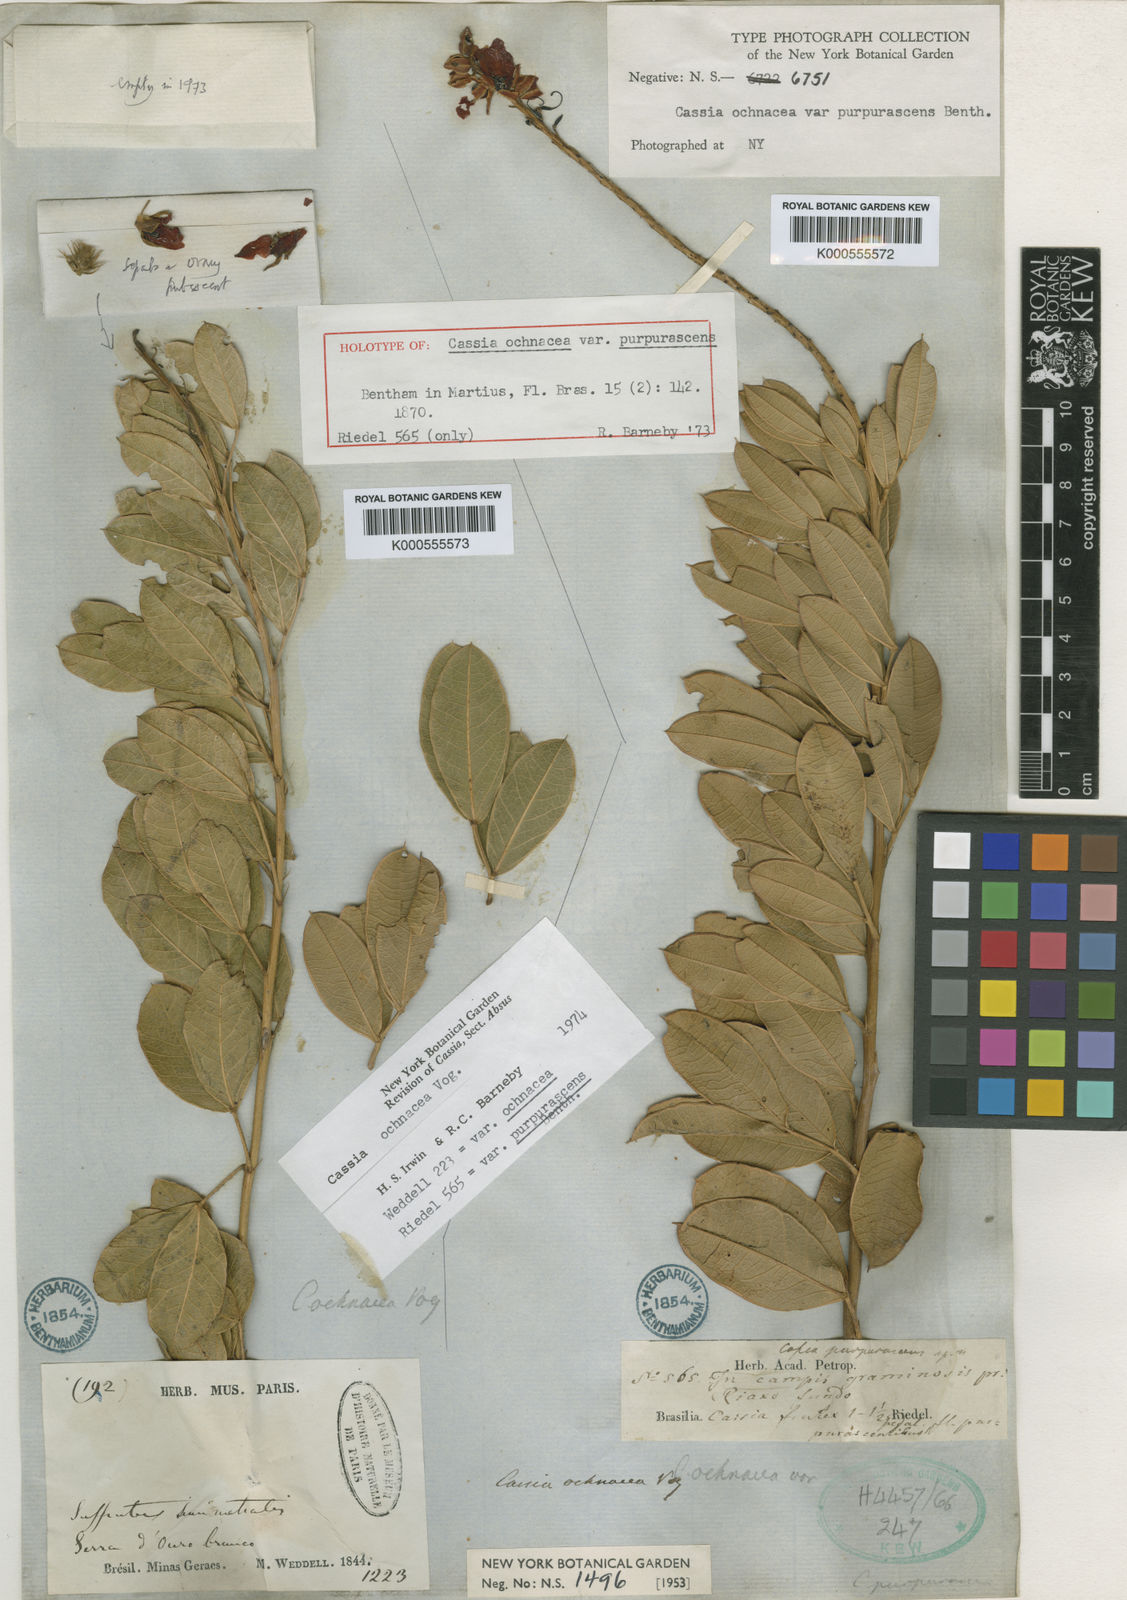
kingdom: Plantae
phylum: Tracheophyta
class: Magnoliopsida
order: Fabales
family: Fabaceae
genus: Chamaecrista
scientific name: Chamaecrista ochnacea
